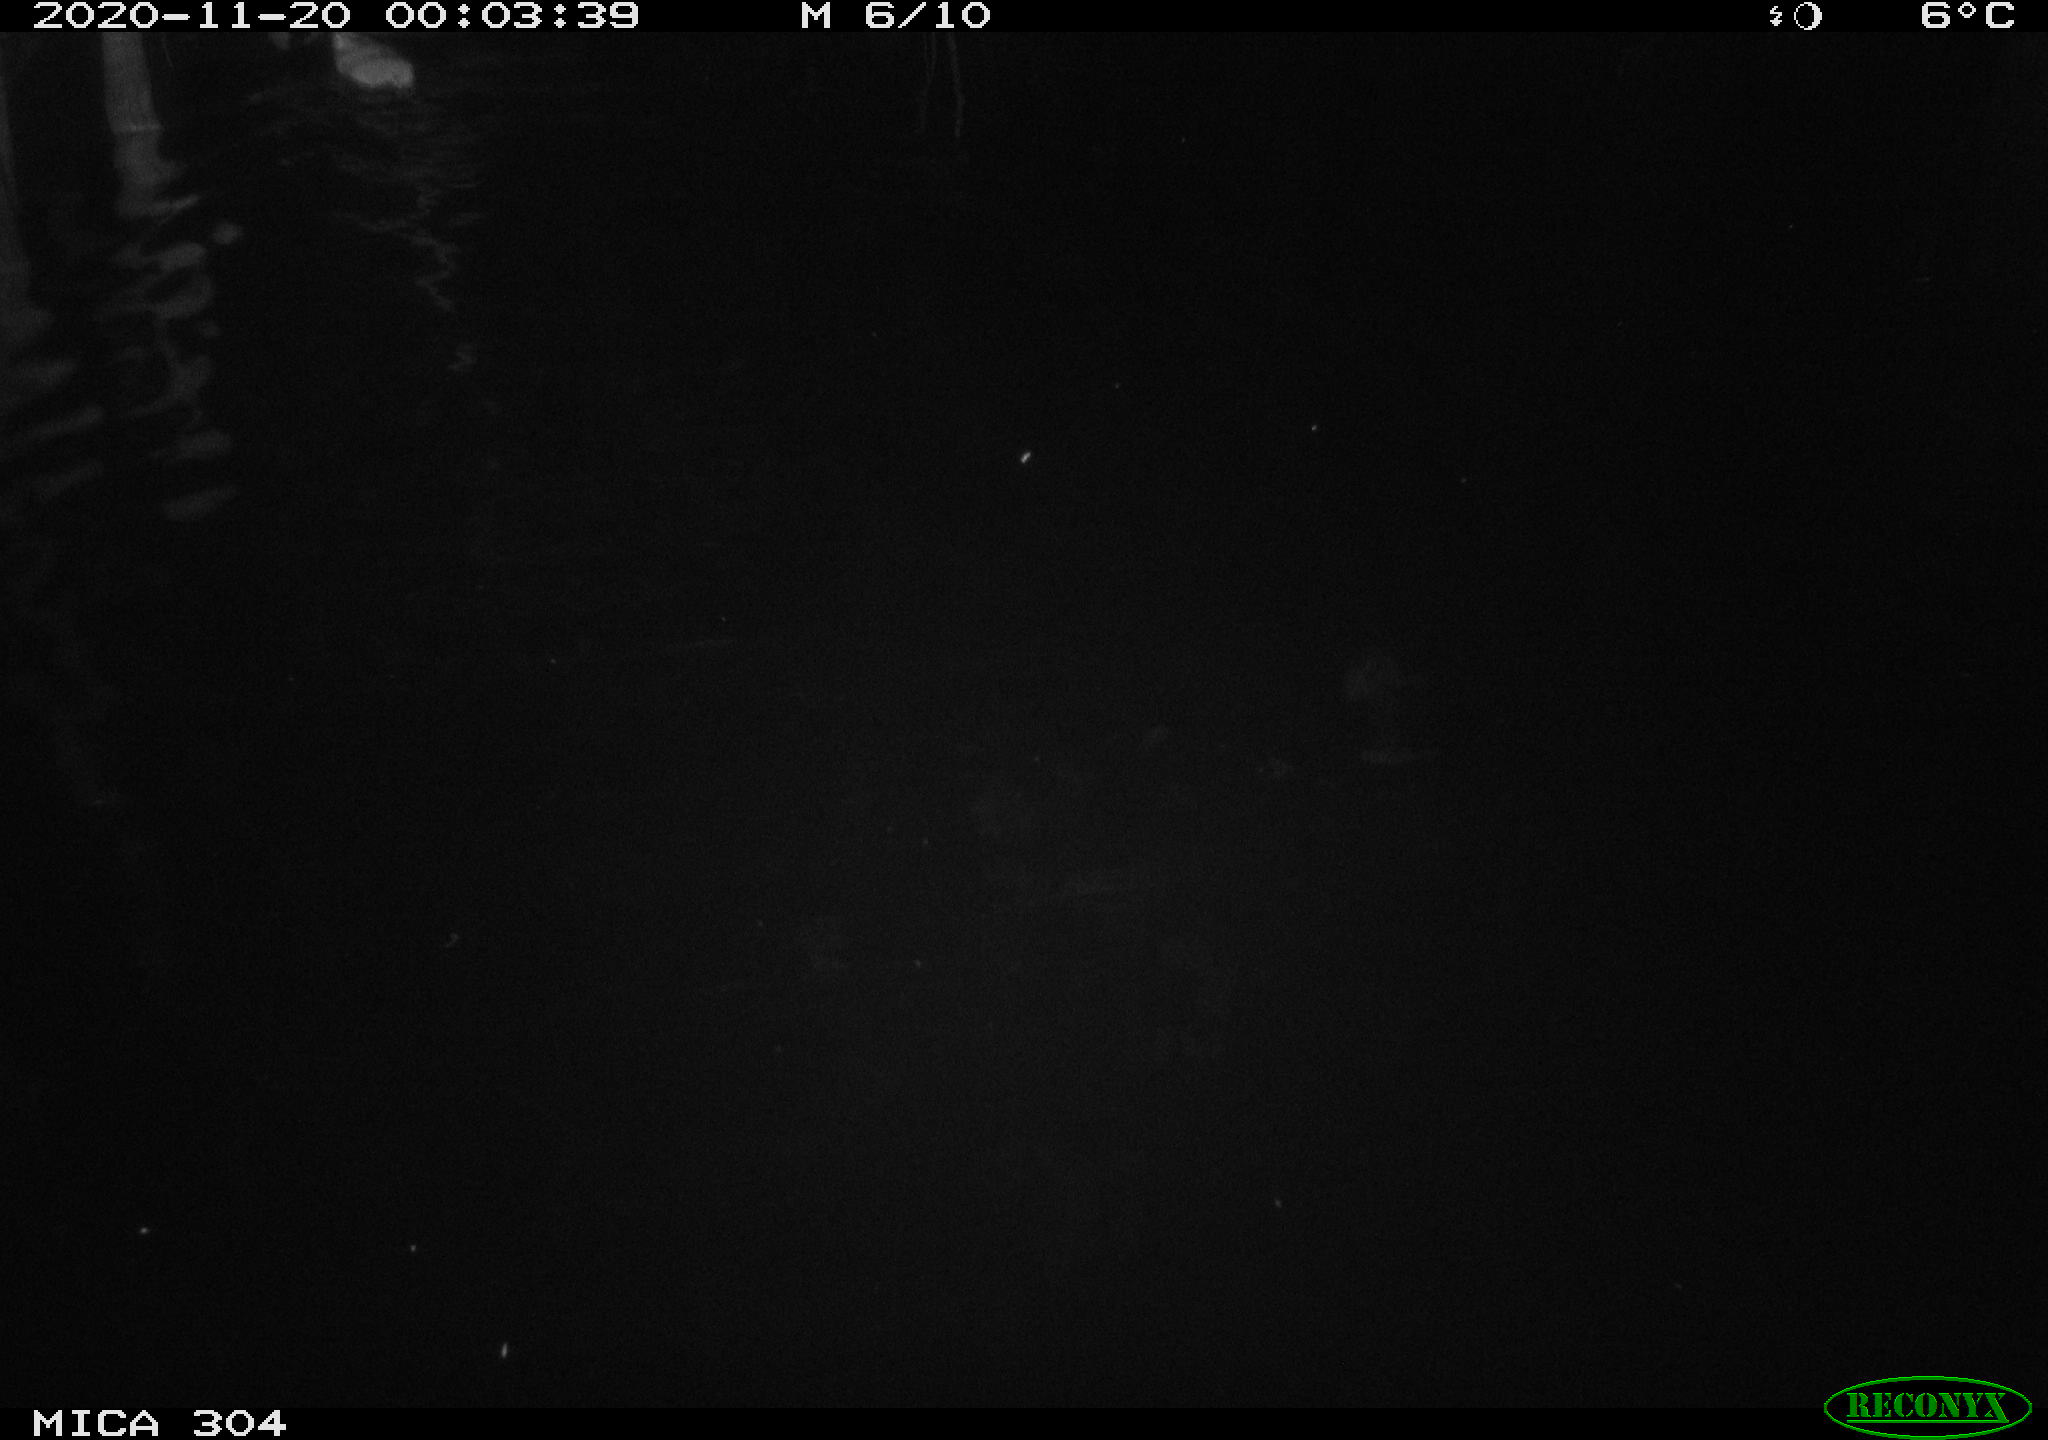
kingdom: Animalia
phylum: Chordata
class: Mammalia
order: Rodentia
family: Muridae
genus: Rattus
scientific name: Rattus norvegicus
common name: Brown rat
